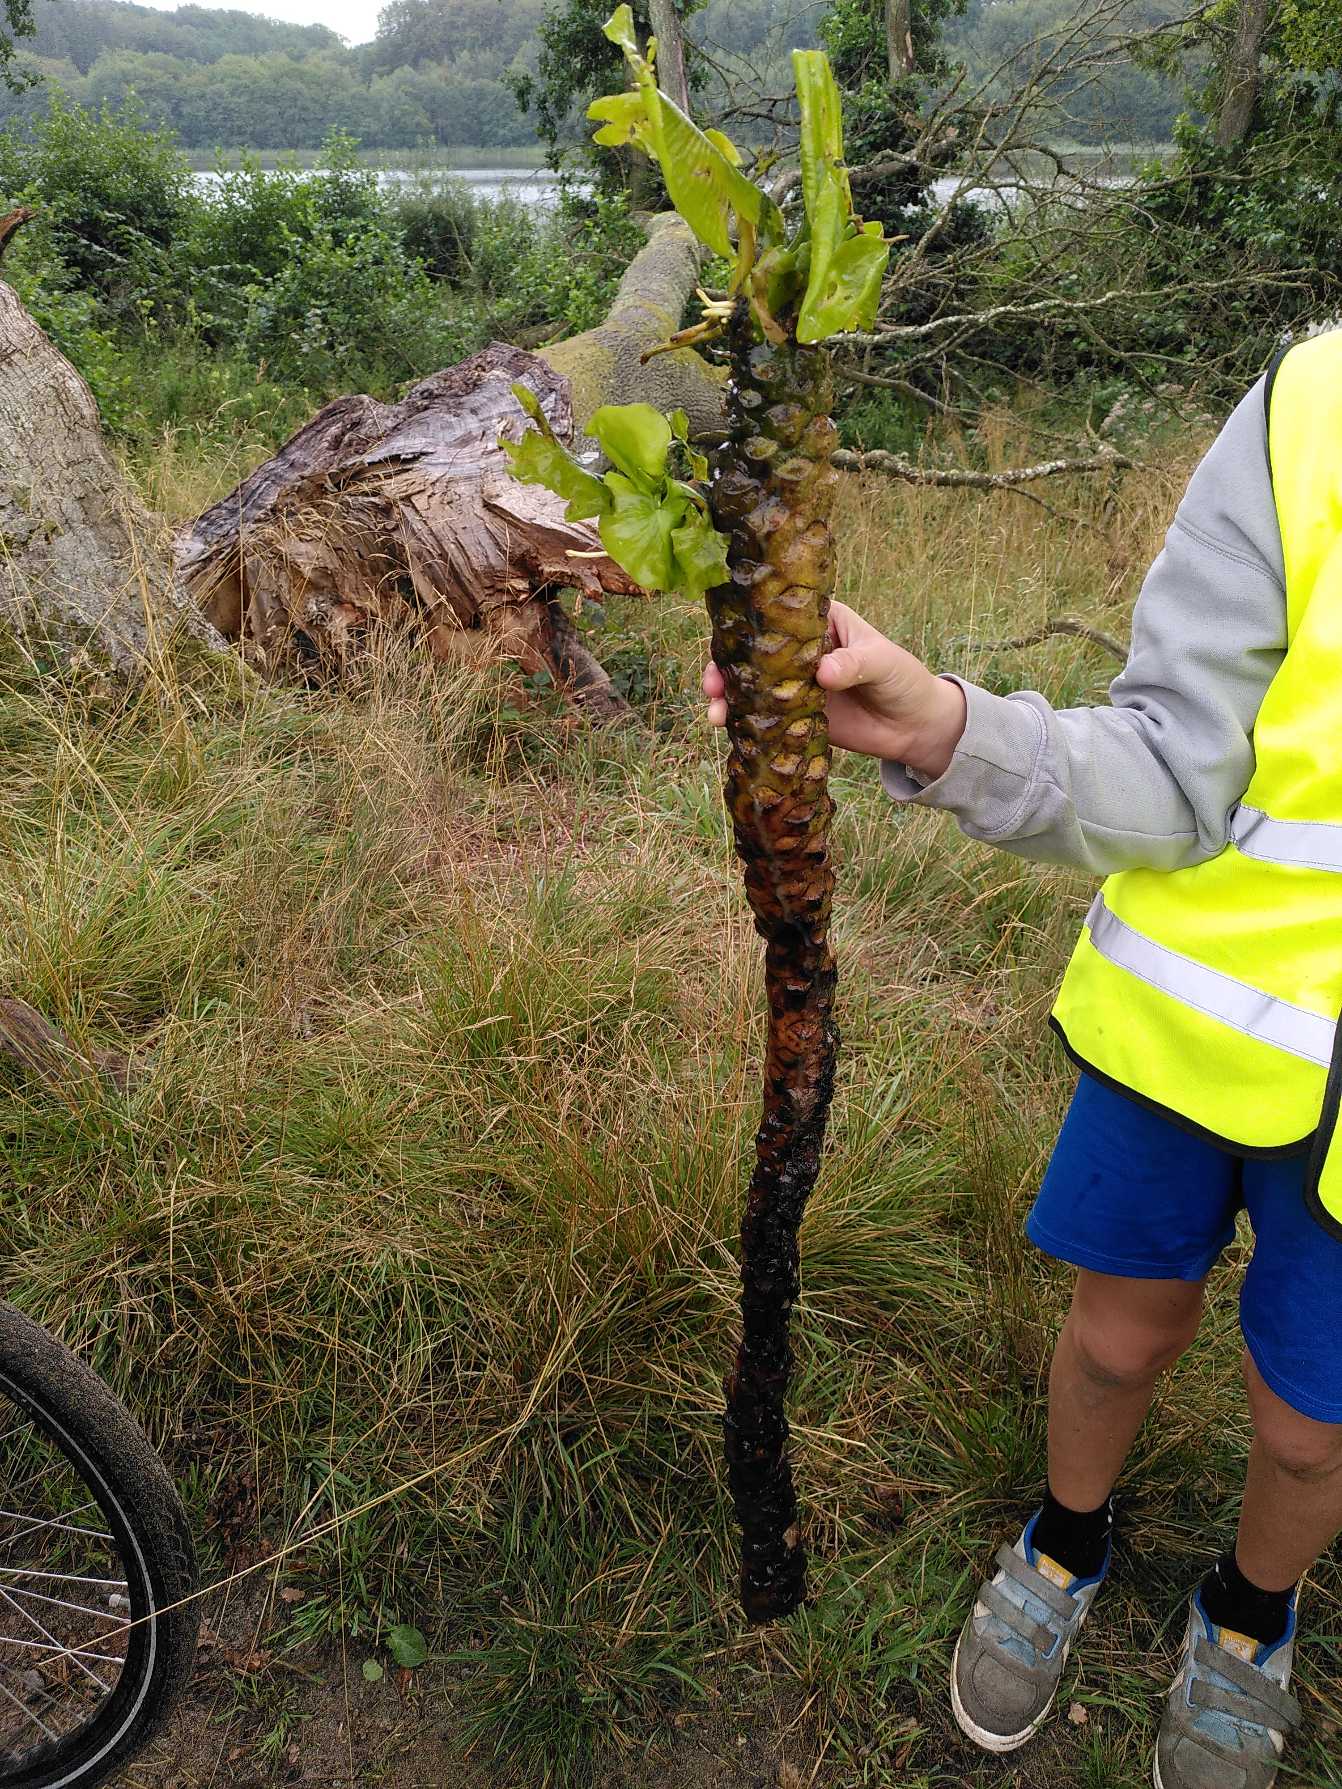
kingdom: Plantae
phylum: Tracheophyta
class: Magnoliopsida
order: Nymphaeales
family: Nymphaeaceae
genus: Nuphar
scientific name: Nuphar lutea
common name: Gul åkande
